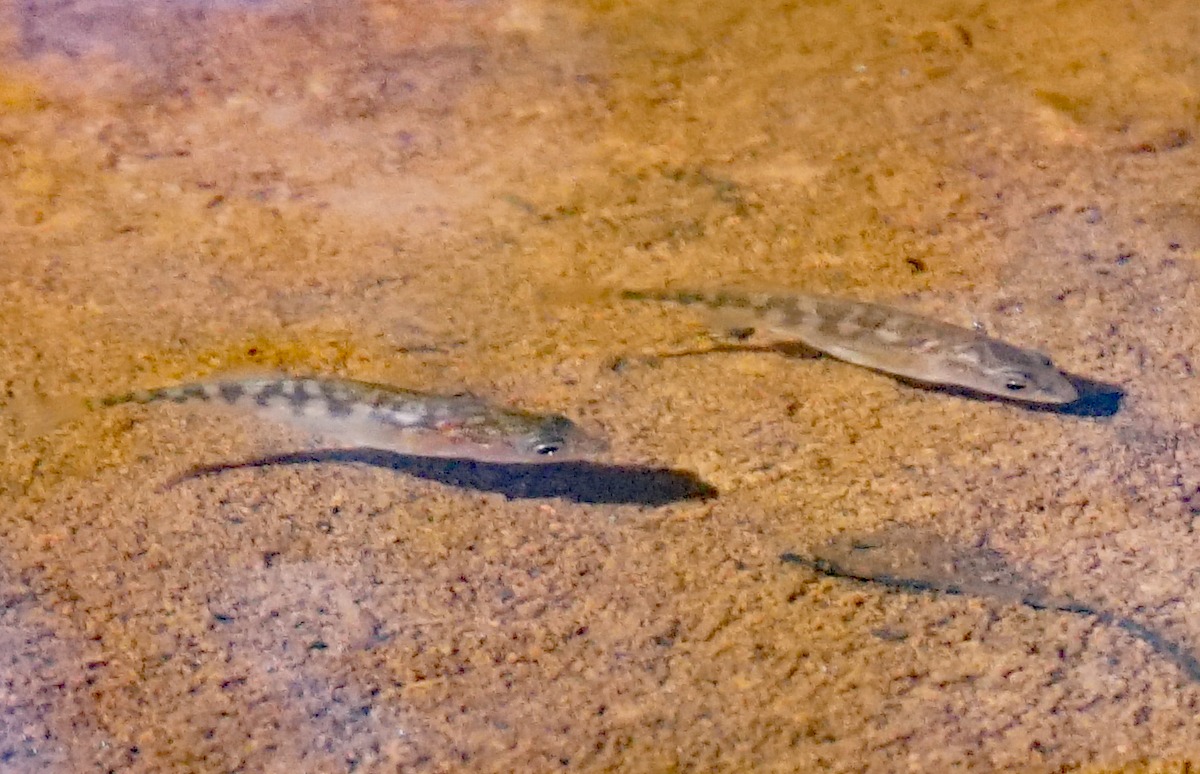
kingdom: Animalia
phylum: Chordata
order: Gasterosteiformes
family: Gasterosteidae
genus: Gasterosteus
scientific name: Gasterosteus aculeatus
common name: Trepigget hundestejle
